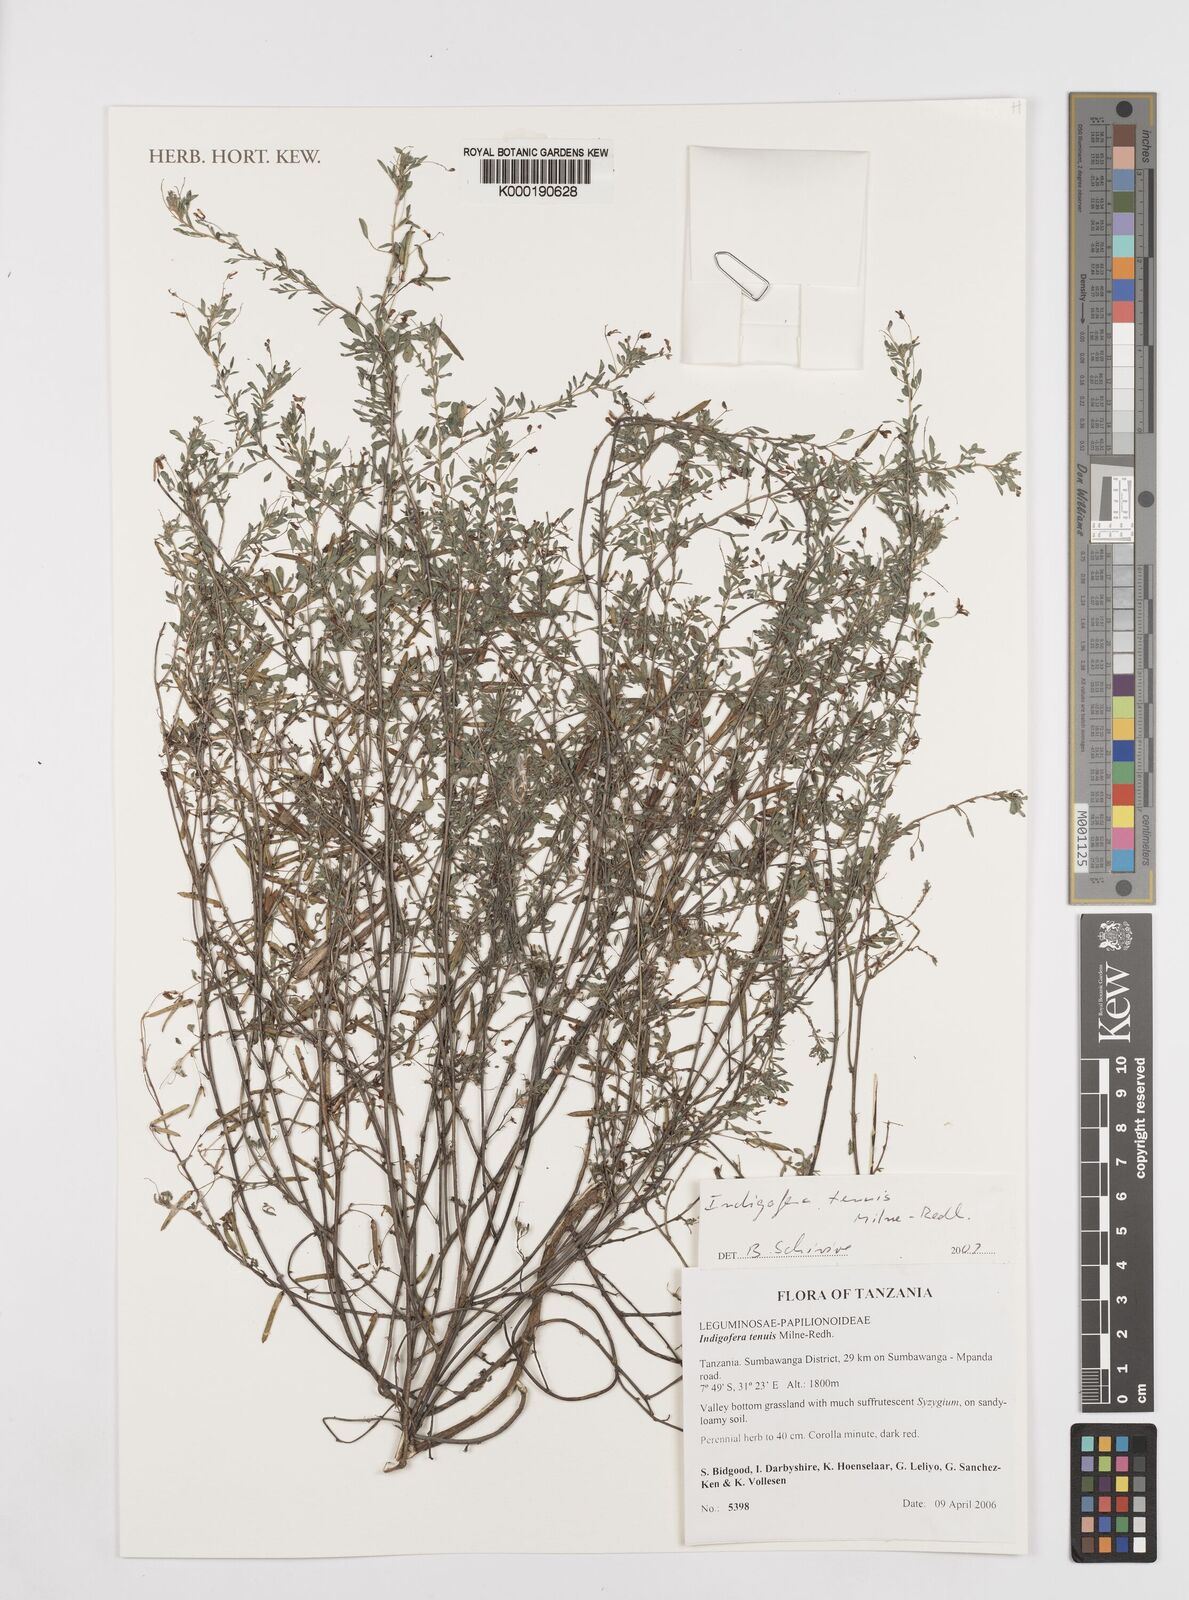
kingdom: Plantae
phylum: Tracheophyta
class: Magnoliopsida
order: Fabales
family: Fabaceae
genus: Indigofera
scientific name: Indigofera dissitiflora
